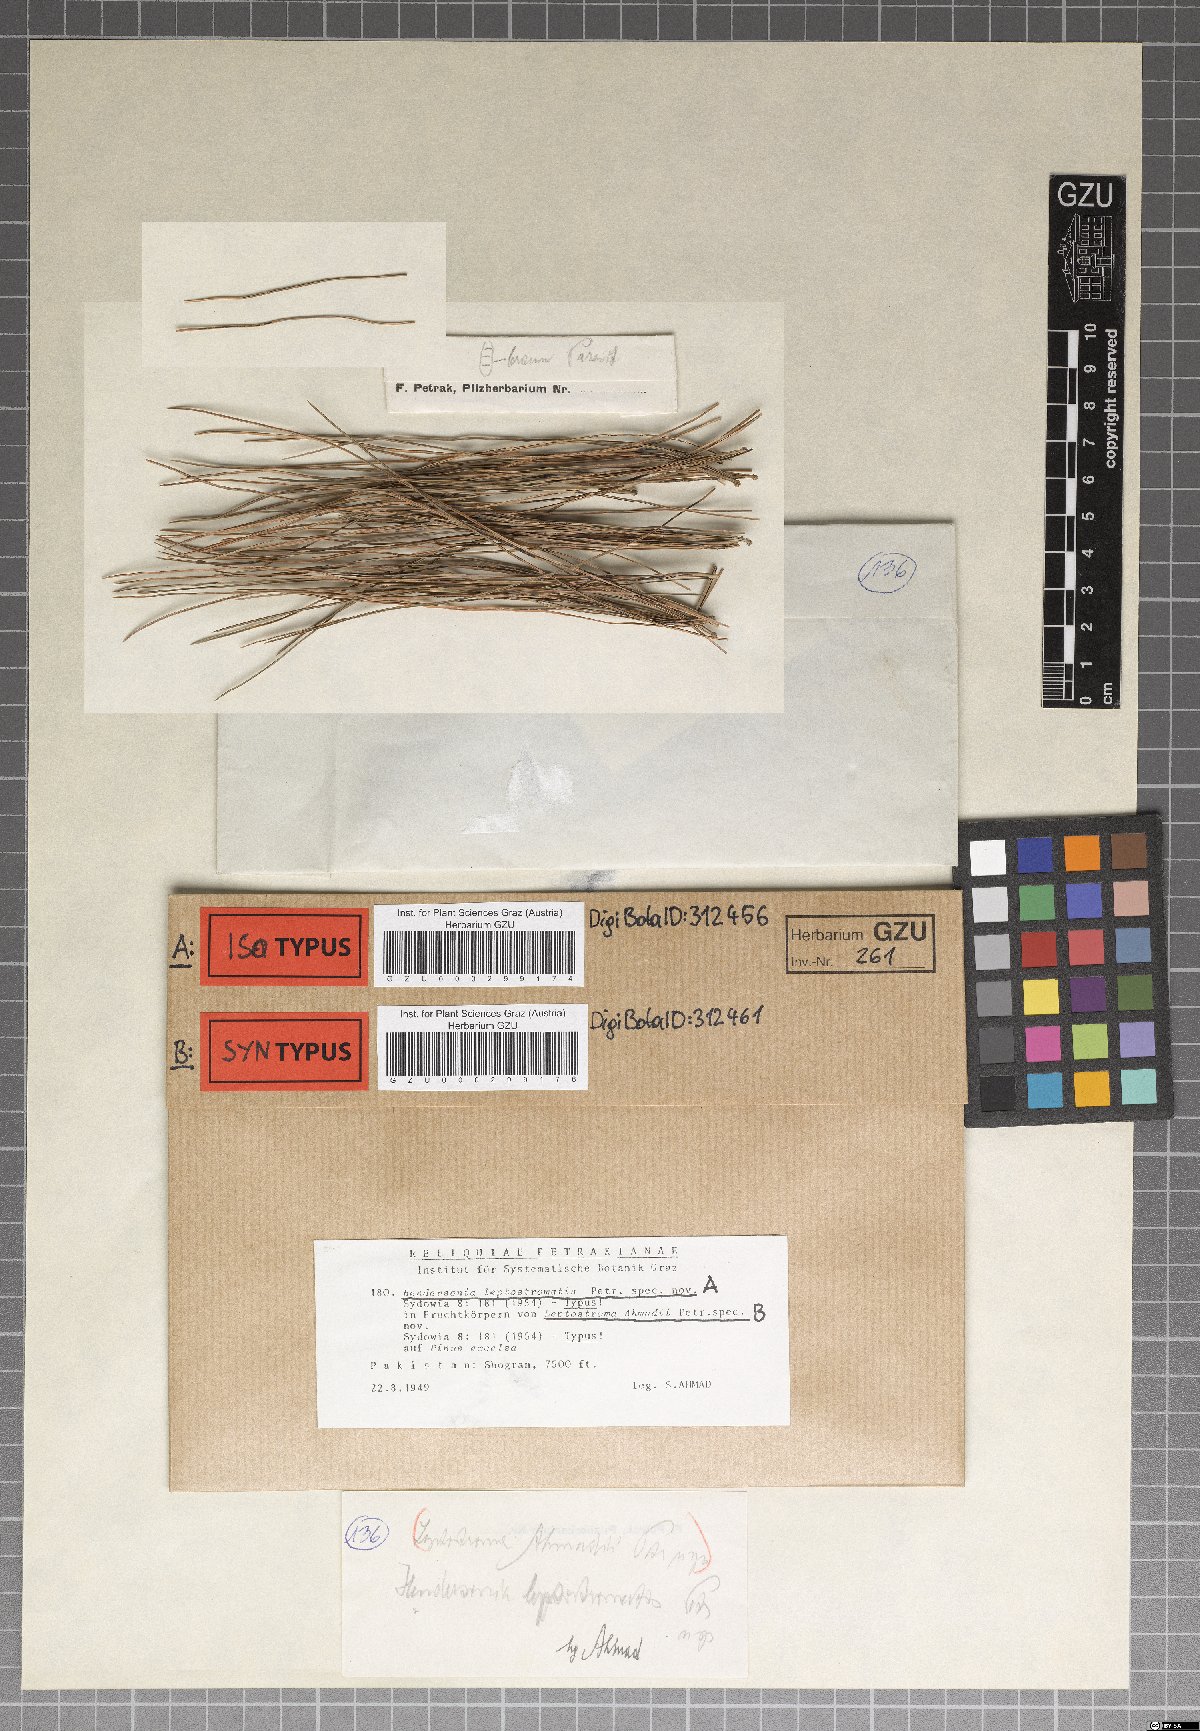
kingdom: Fungi
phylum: Ascomycota
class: Leotiomycetes
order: Rhytismatales
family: Rhytismataceae
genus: Bifusella
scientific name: Bifusella ahmadii
